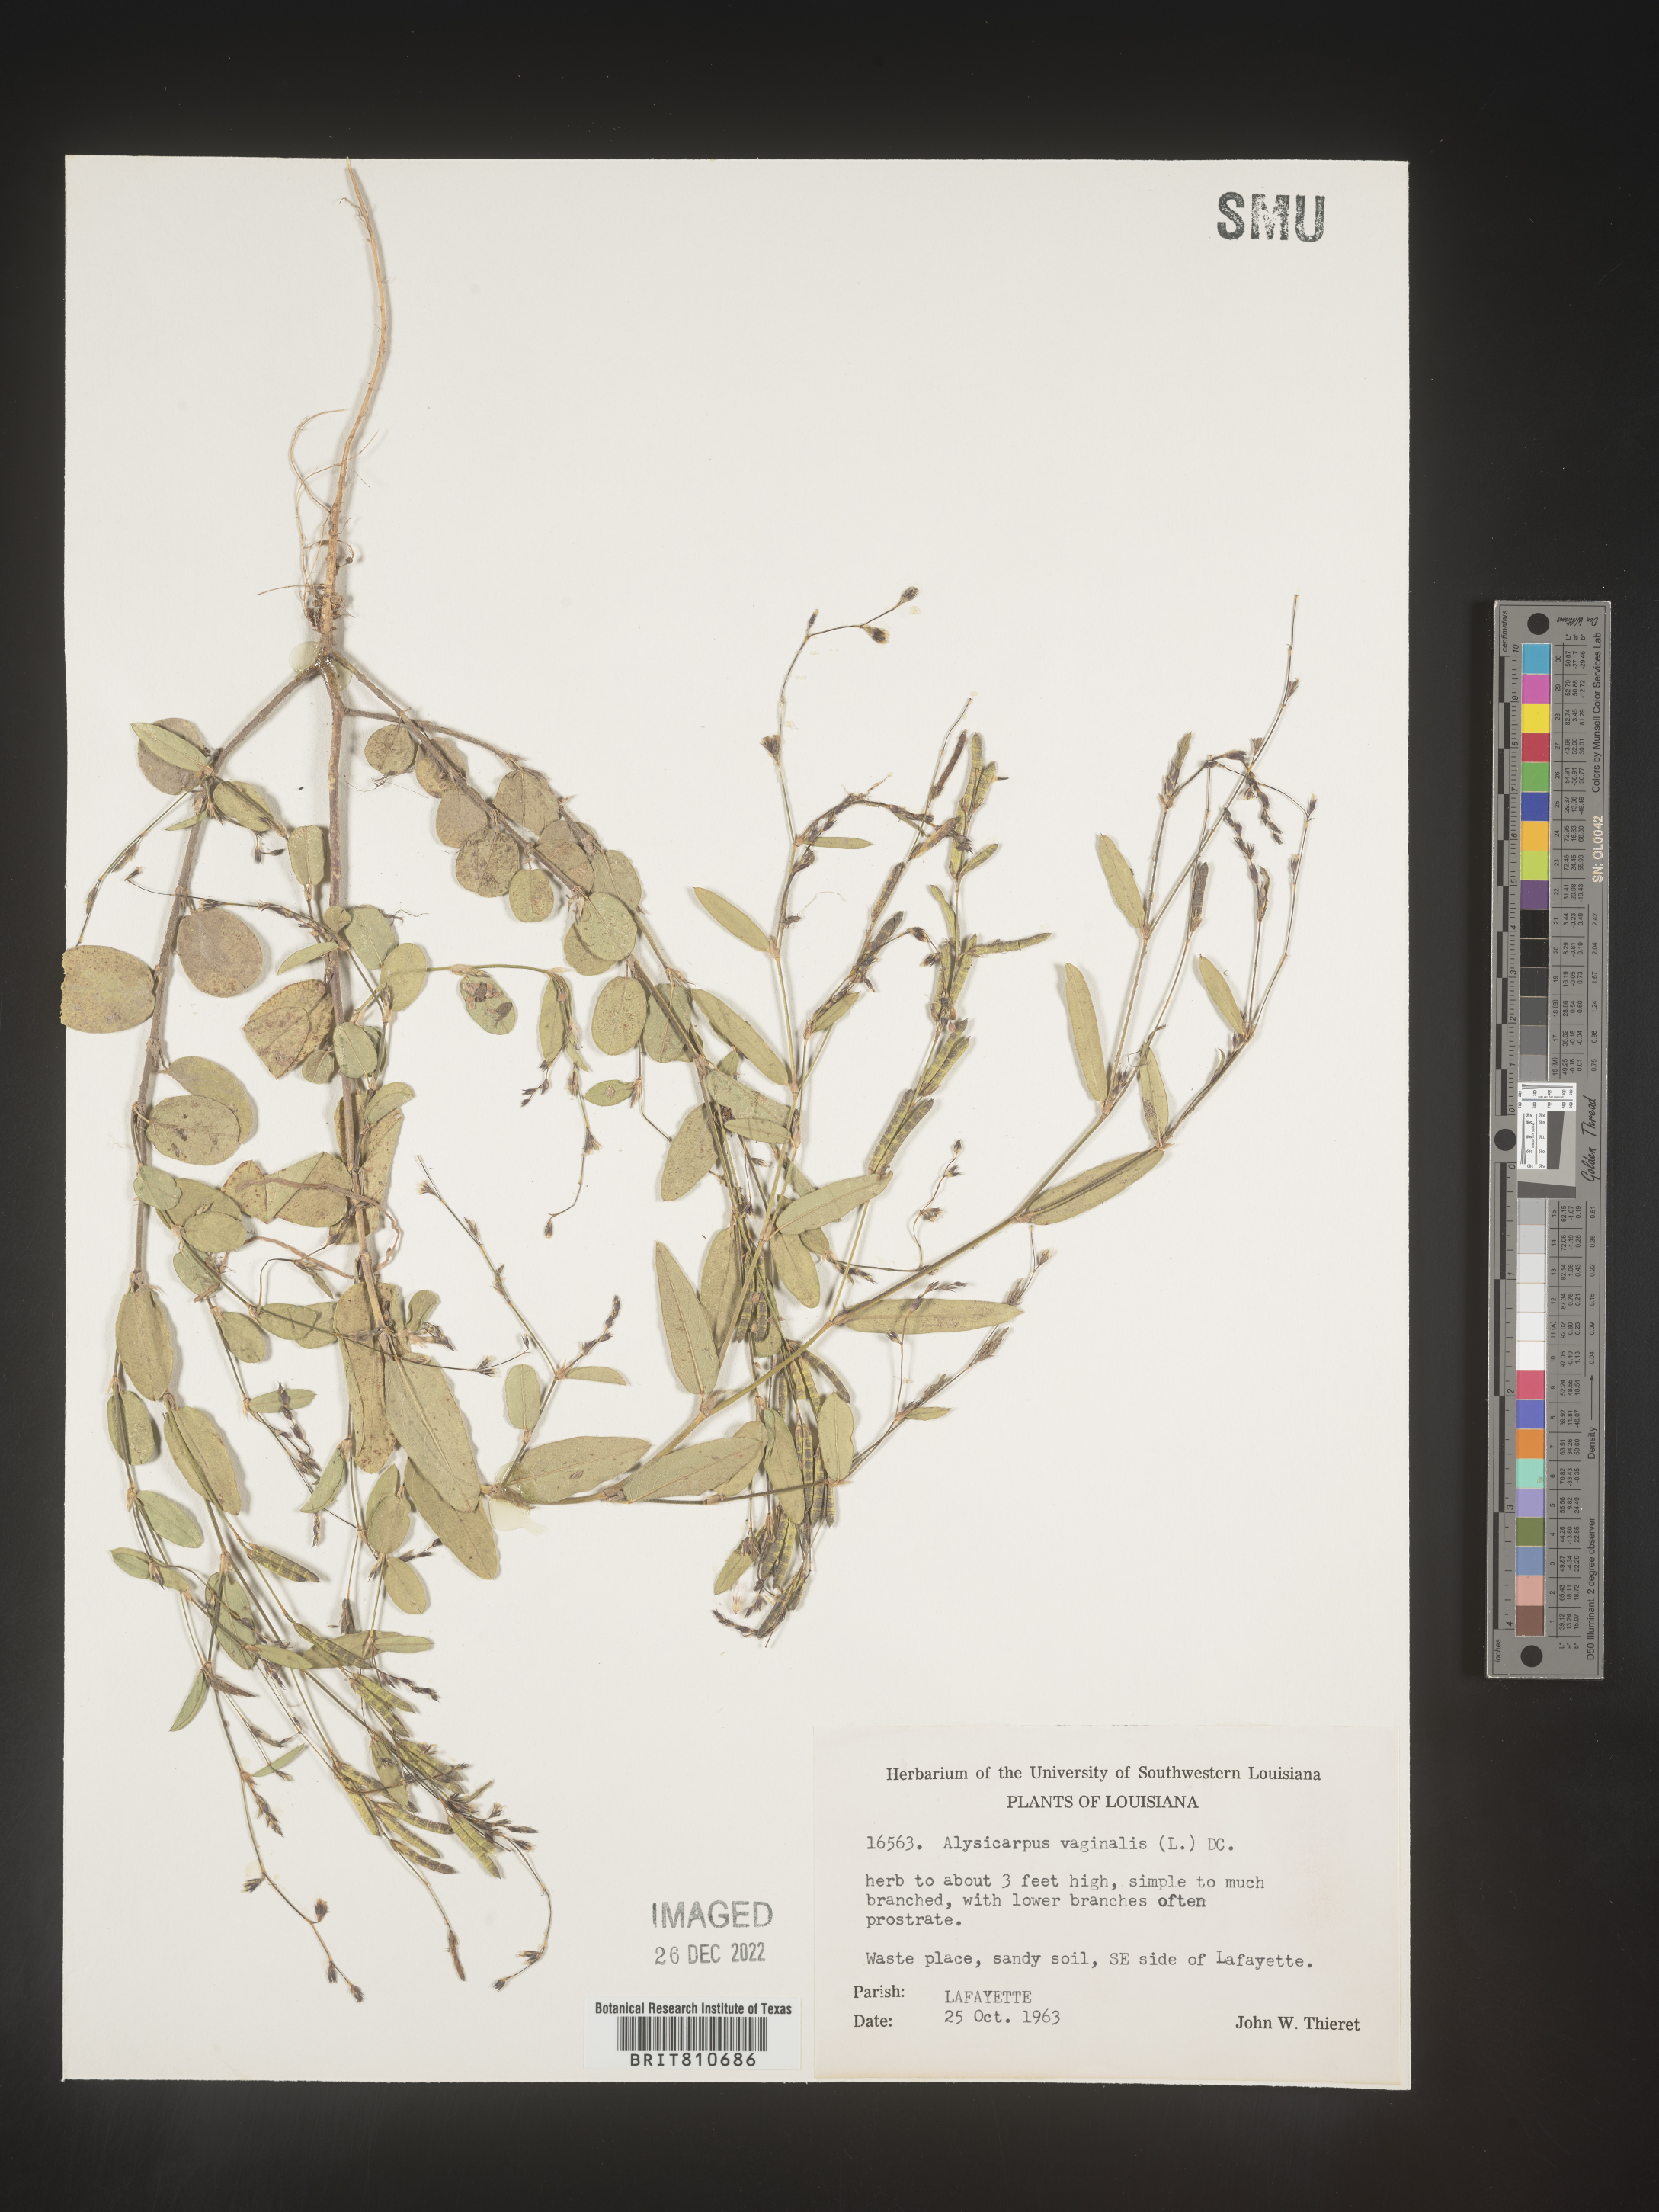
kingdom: Plantae
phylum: Tracheophyta
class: Magnoliopsida
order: Fabales
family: Fabaceae
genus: Alysicarpus
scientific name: Alysicarpus
